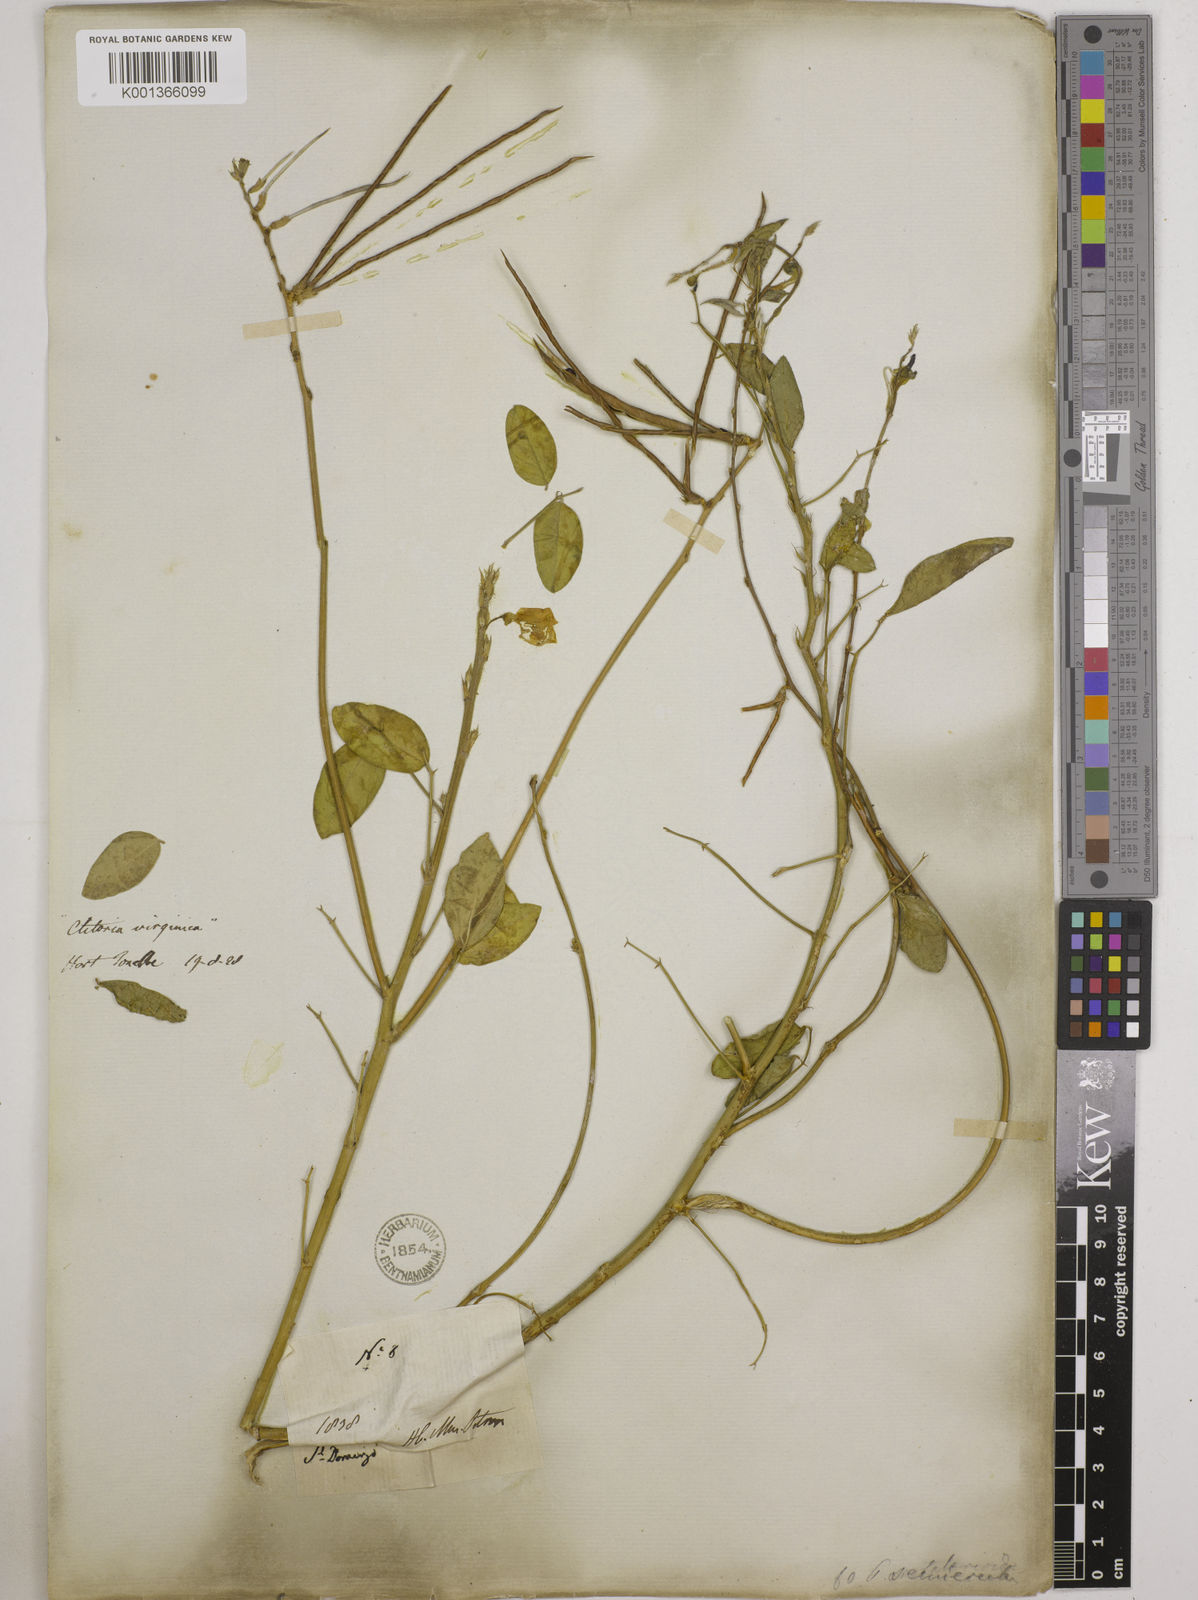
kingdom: Plantae
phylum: Tracheophyta
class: Magnoliopsida
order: Fabales
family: Fabaceae
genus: Macroptilium
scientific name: Macroptilium lathyroides
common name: Wild bushbean
